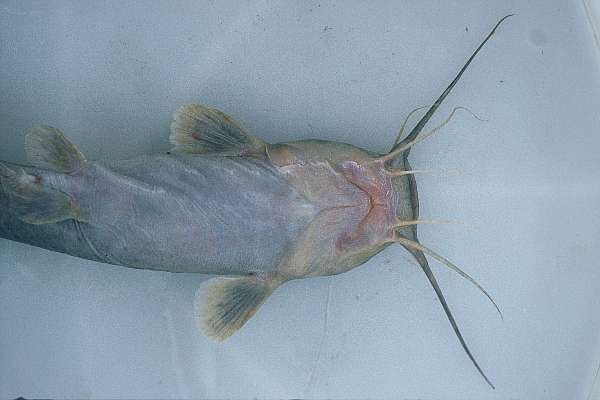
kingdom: Animalia
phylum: Chordata
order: Siluriformes
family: Clariidae
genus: Clariallabes
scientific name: Clariallabes
